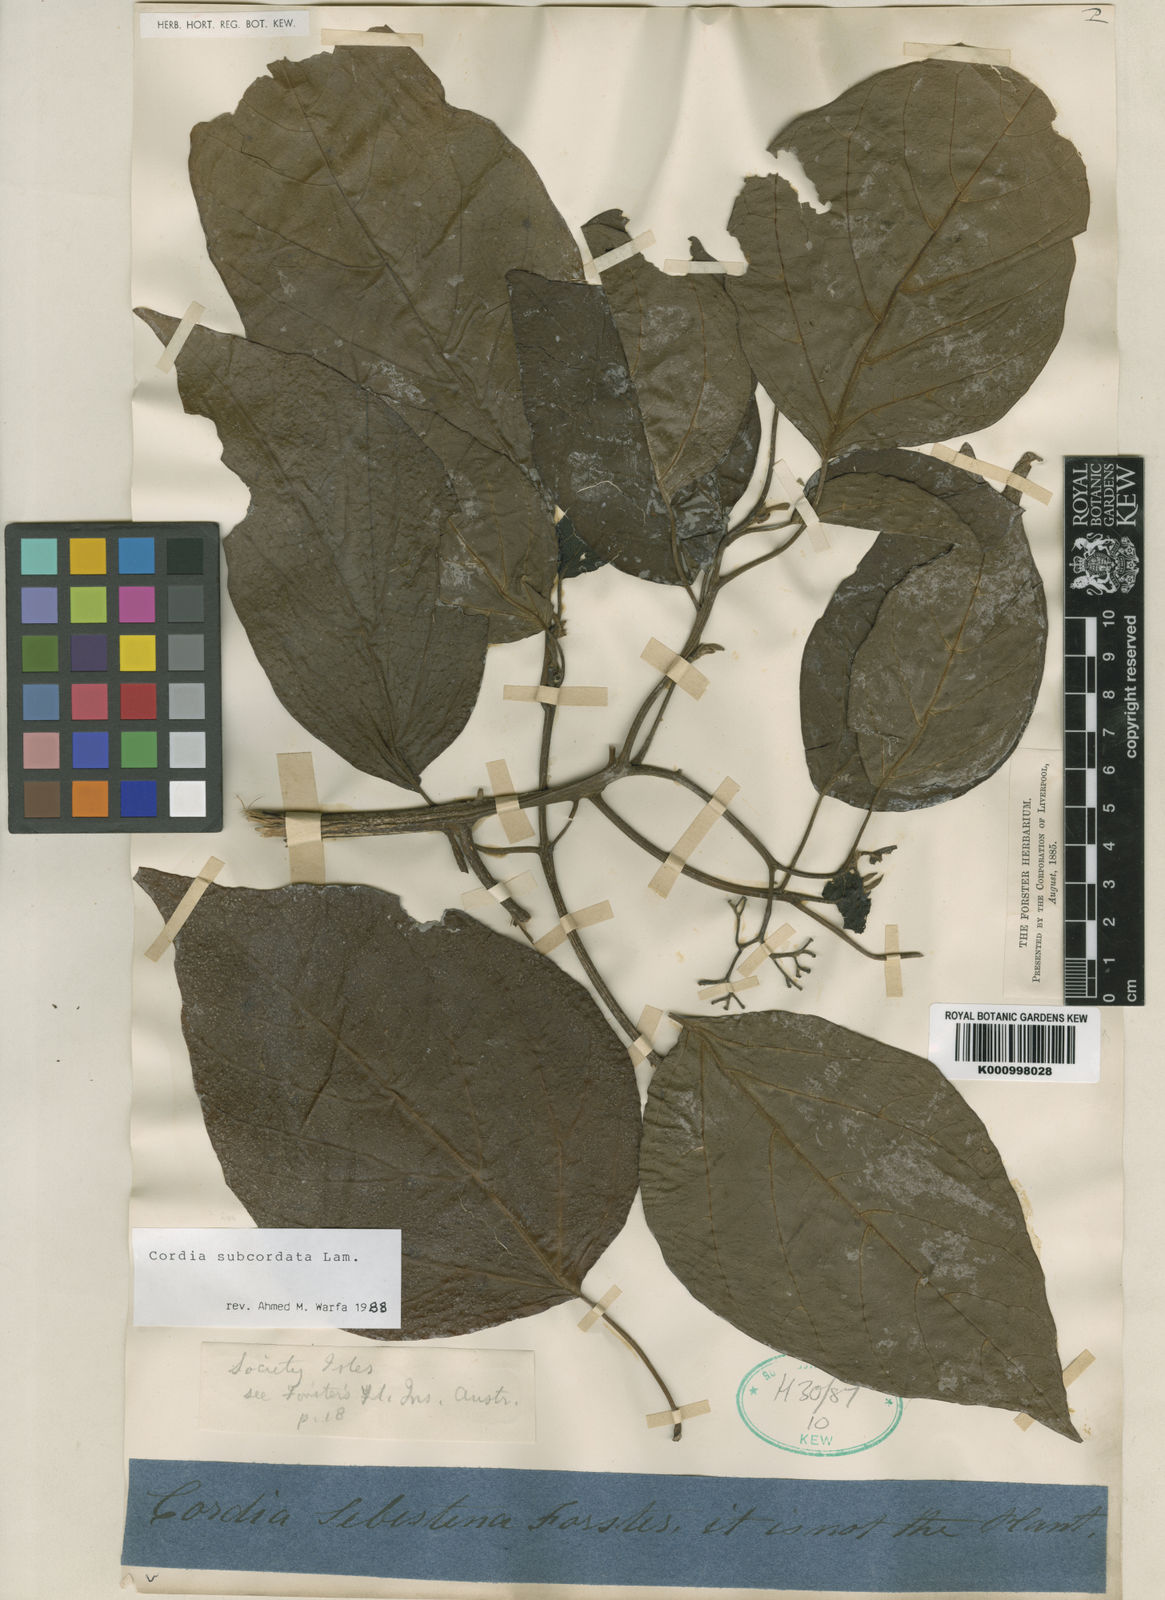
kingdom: Plantae
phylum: Tracheophyta
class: Magnoliopsida
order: Boraginales
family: Cordiaceae
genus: Cordia
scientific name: Cordia subcordata
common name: Mareer
